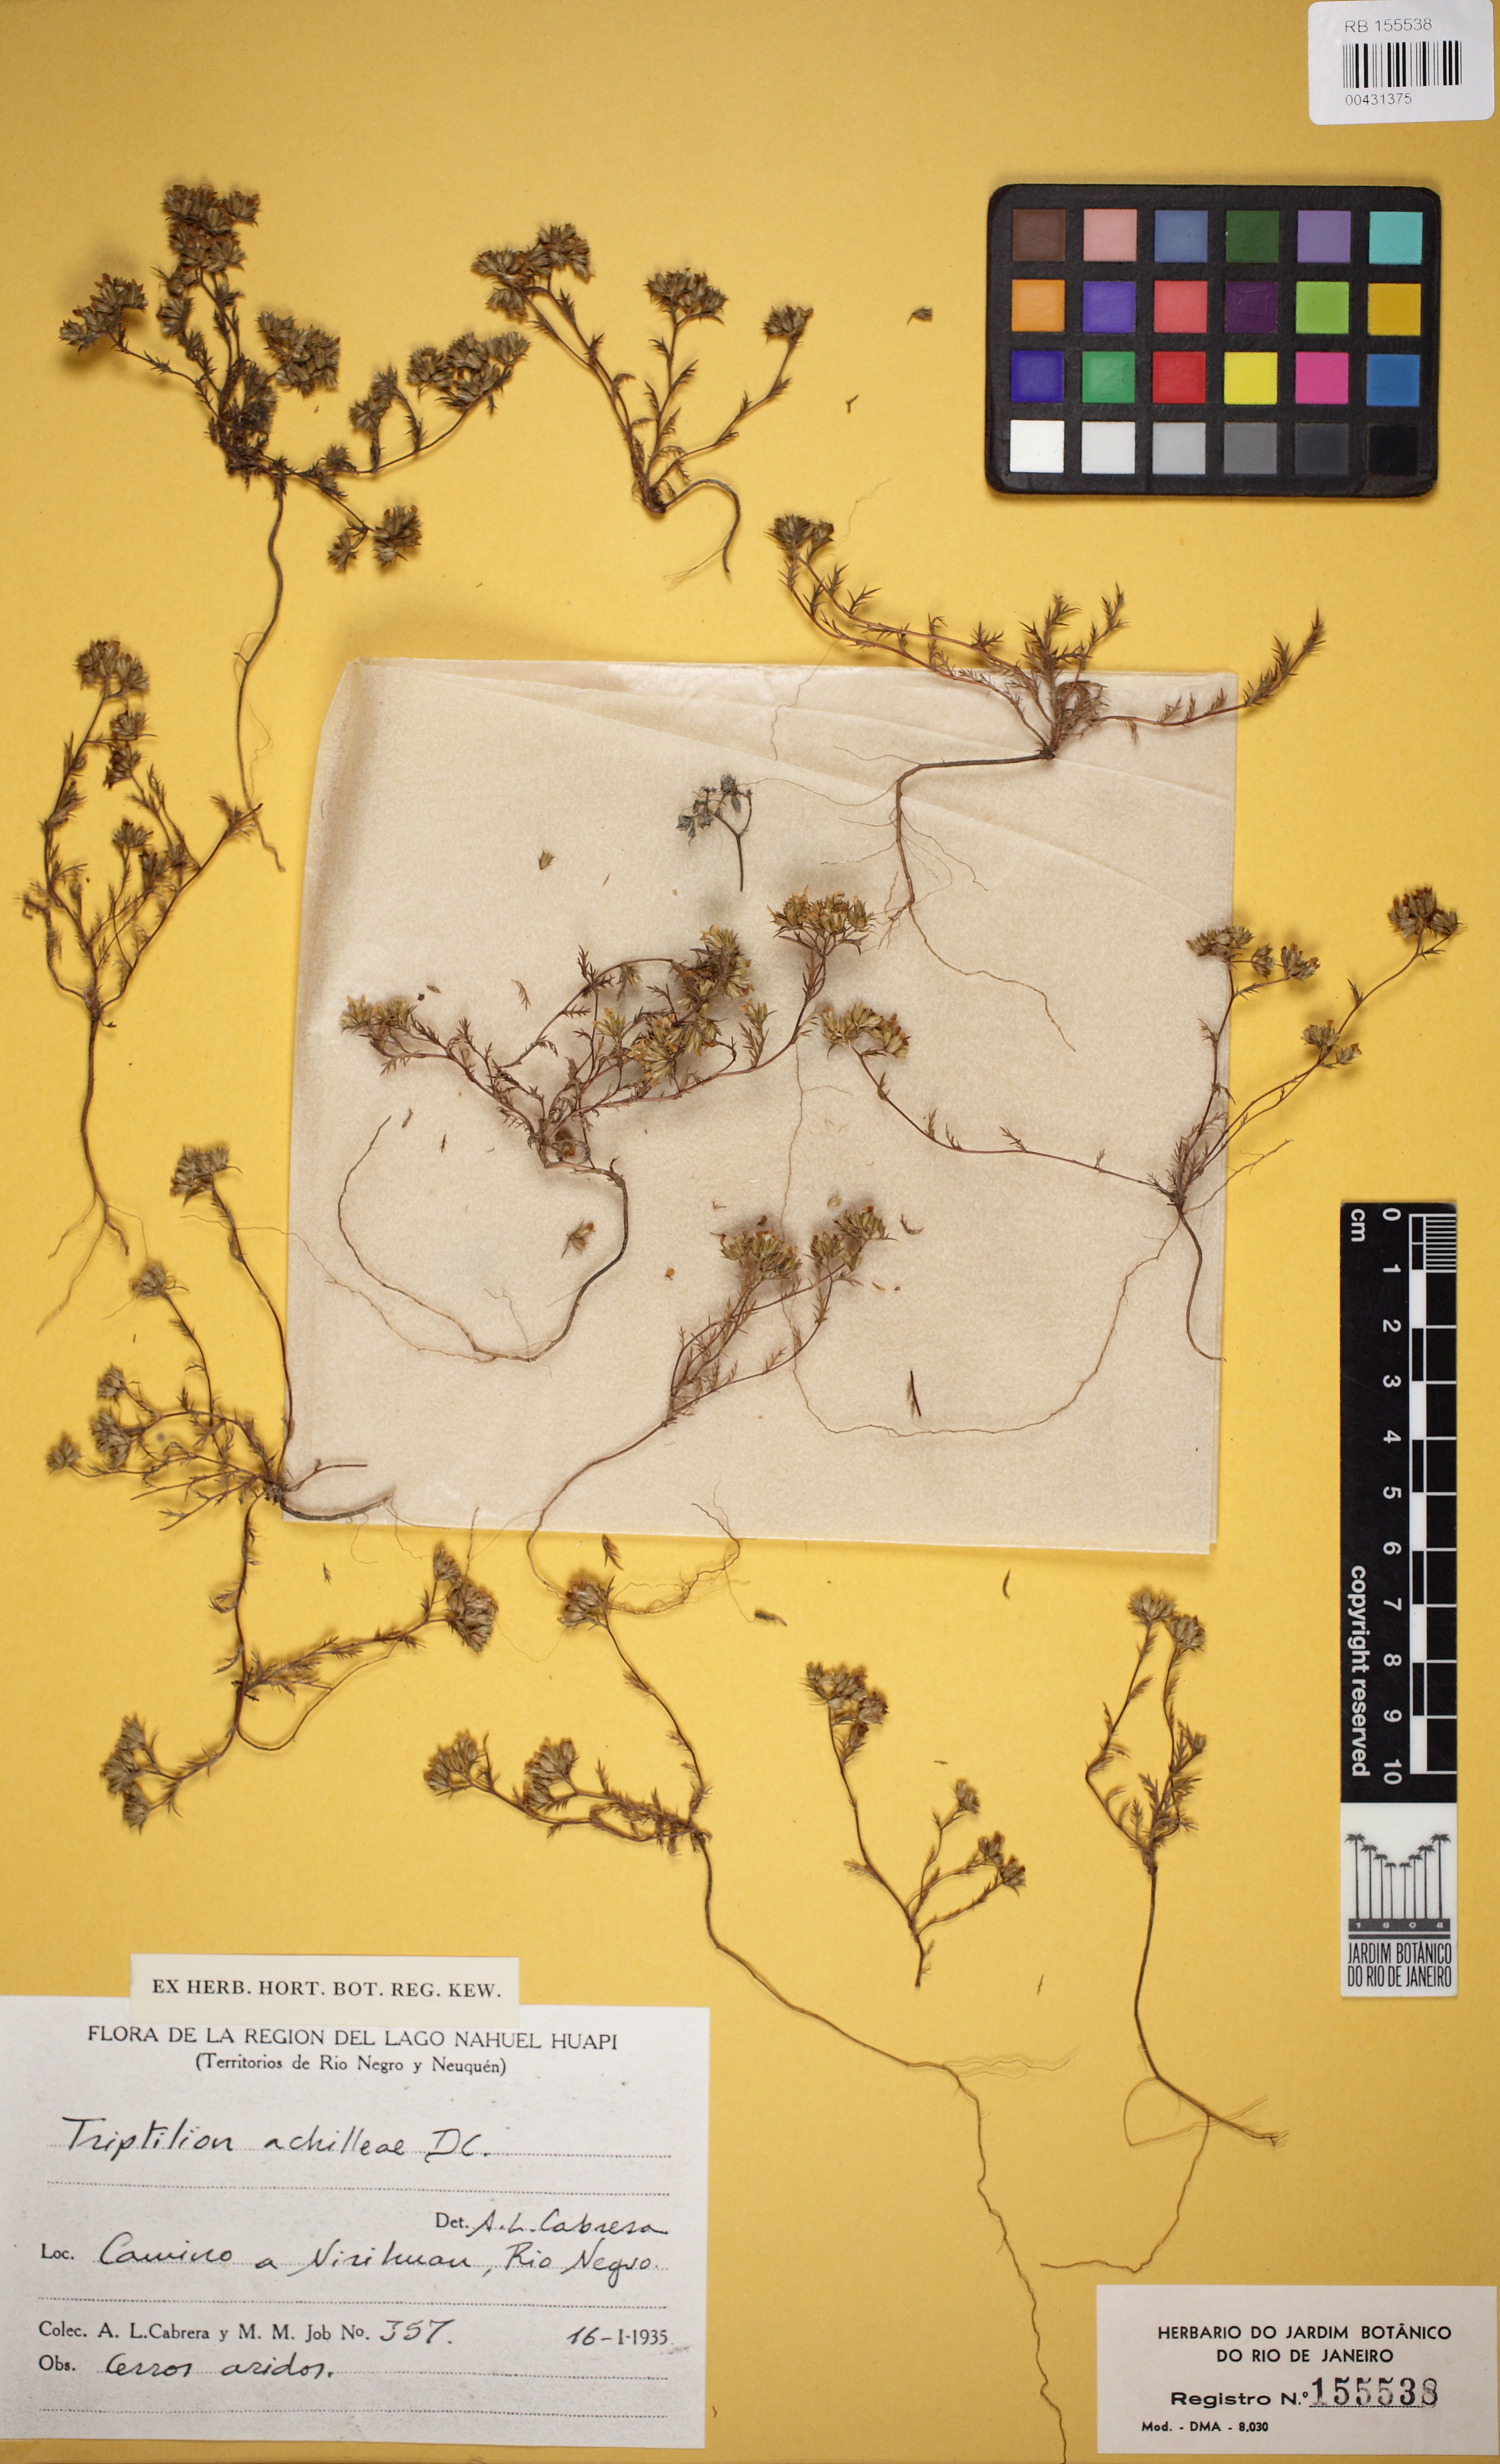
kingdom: Plantae
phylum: Tracheophyta
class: Magnoliopsida
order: Asterales
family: Asteraceae
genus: Triptilion
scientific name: Triptilion achilleae
